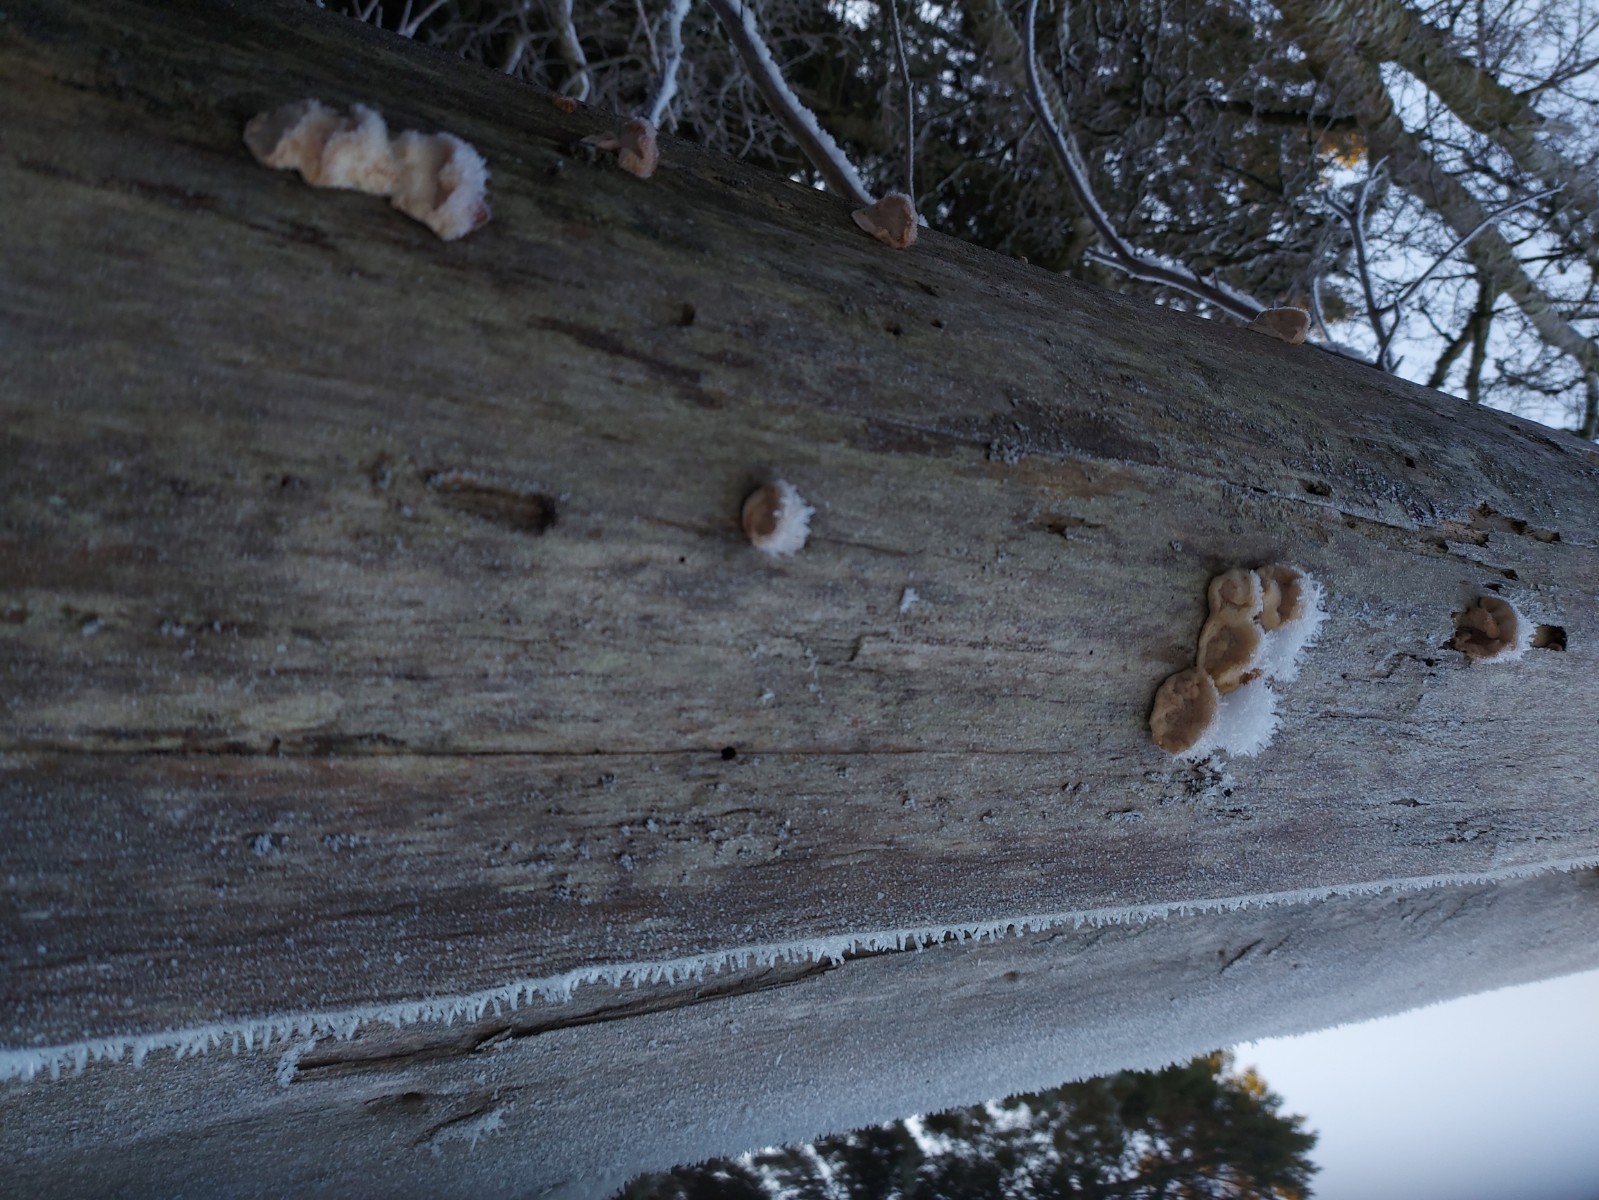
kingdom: Fungi
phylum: Basidiomycota
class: Agaricomycetes
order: Polyporales
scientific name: Polyporales
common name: poresvampordenen
